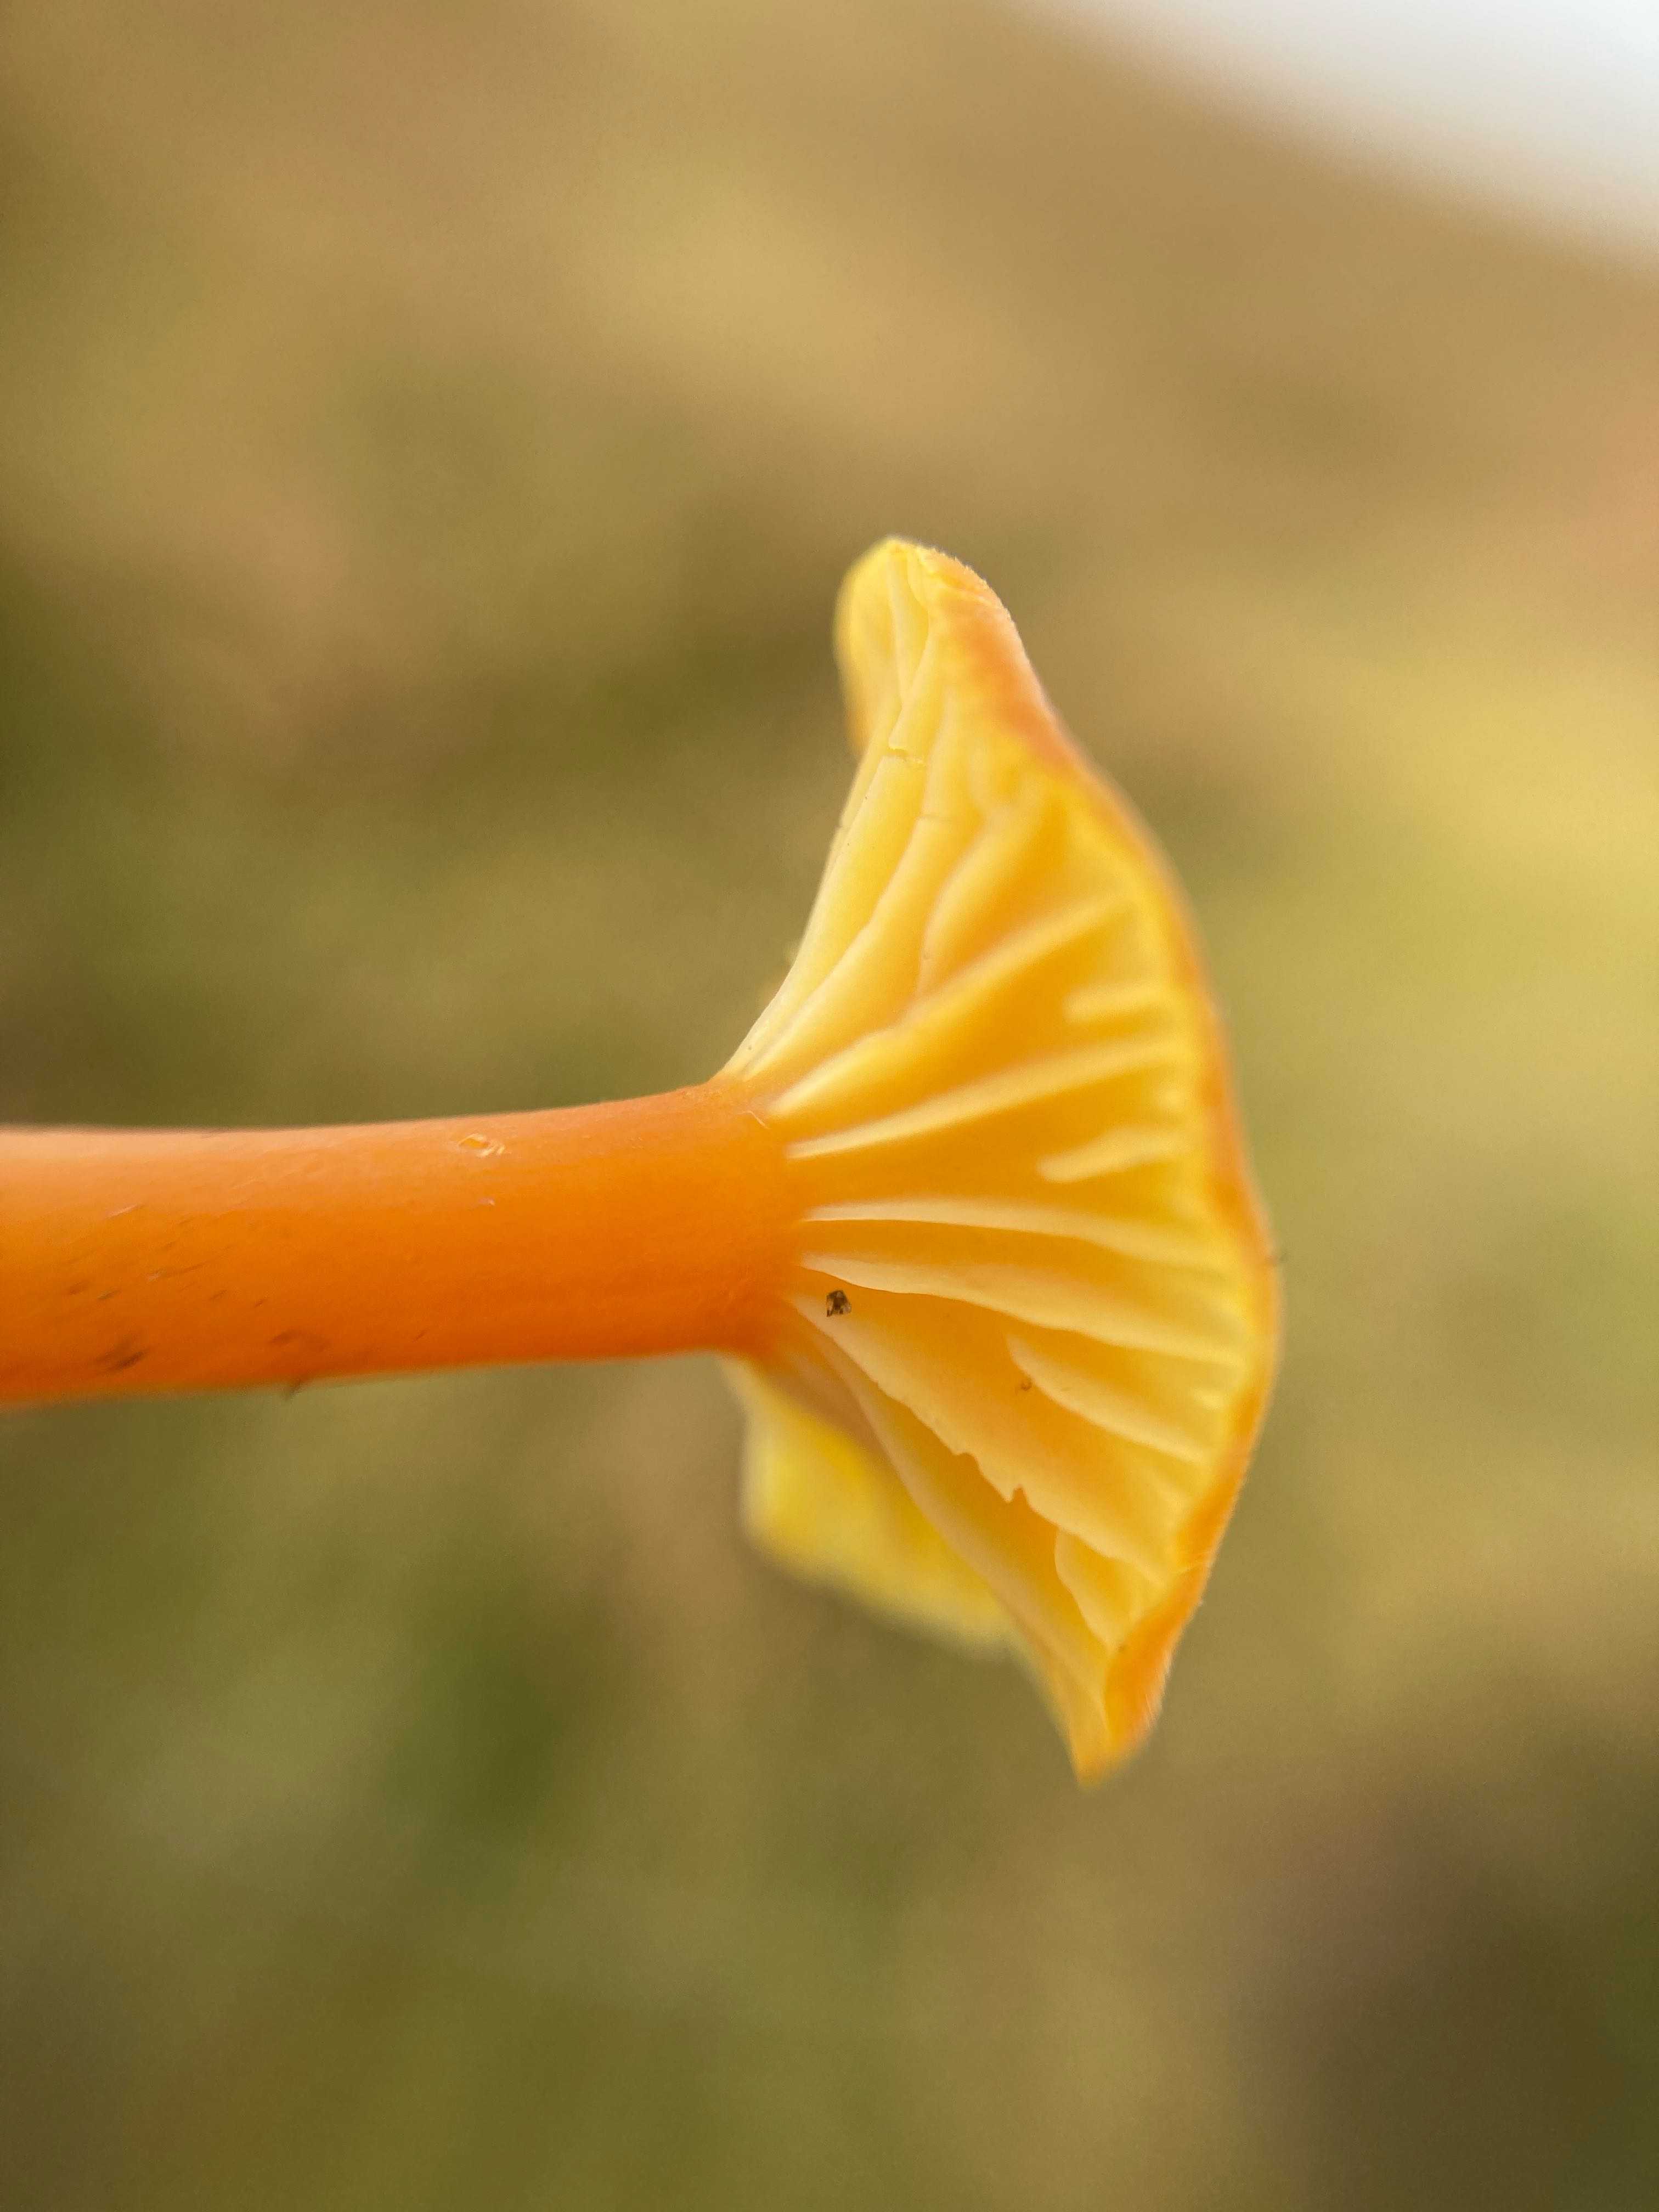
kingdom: Fungi
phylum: Basidiomycota
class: Agaricomycetes
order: Agaricales
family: Hygrophoraceae
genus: Hygrocybe
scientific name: Hygrocybe cantharellus
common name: kantarel-vokshat
